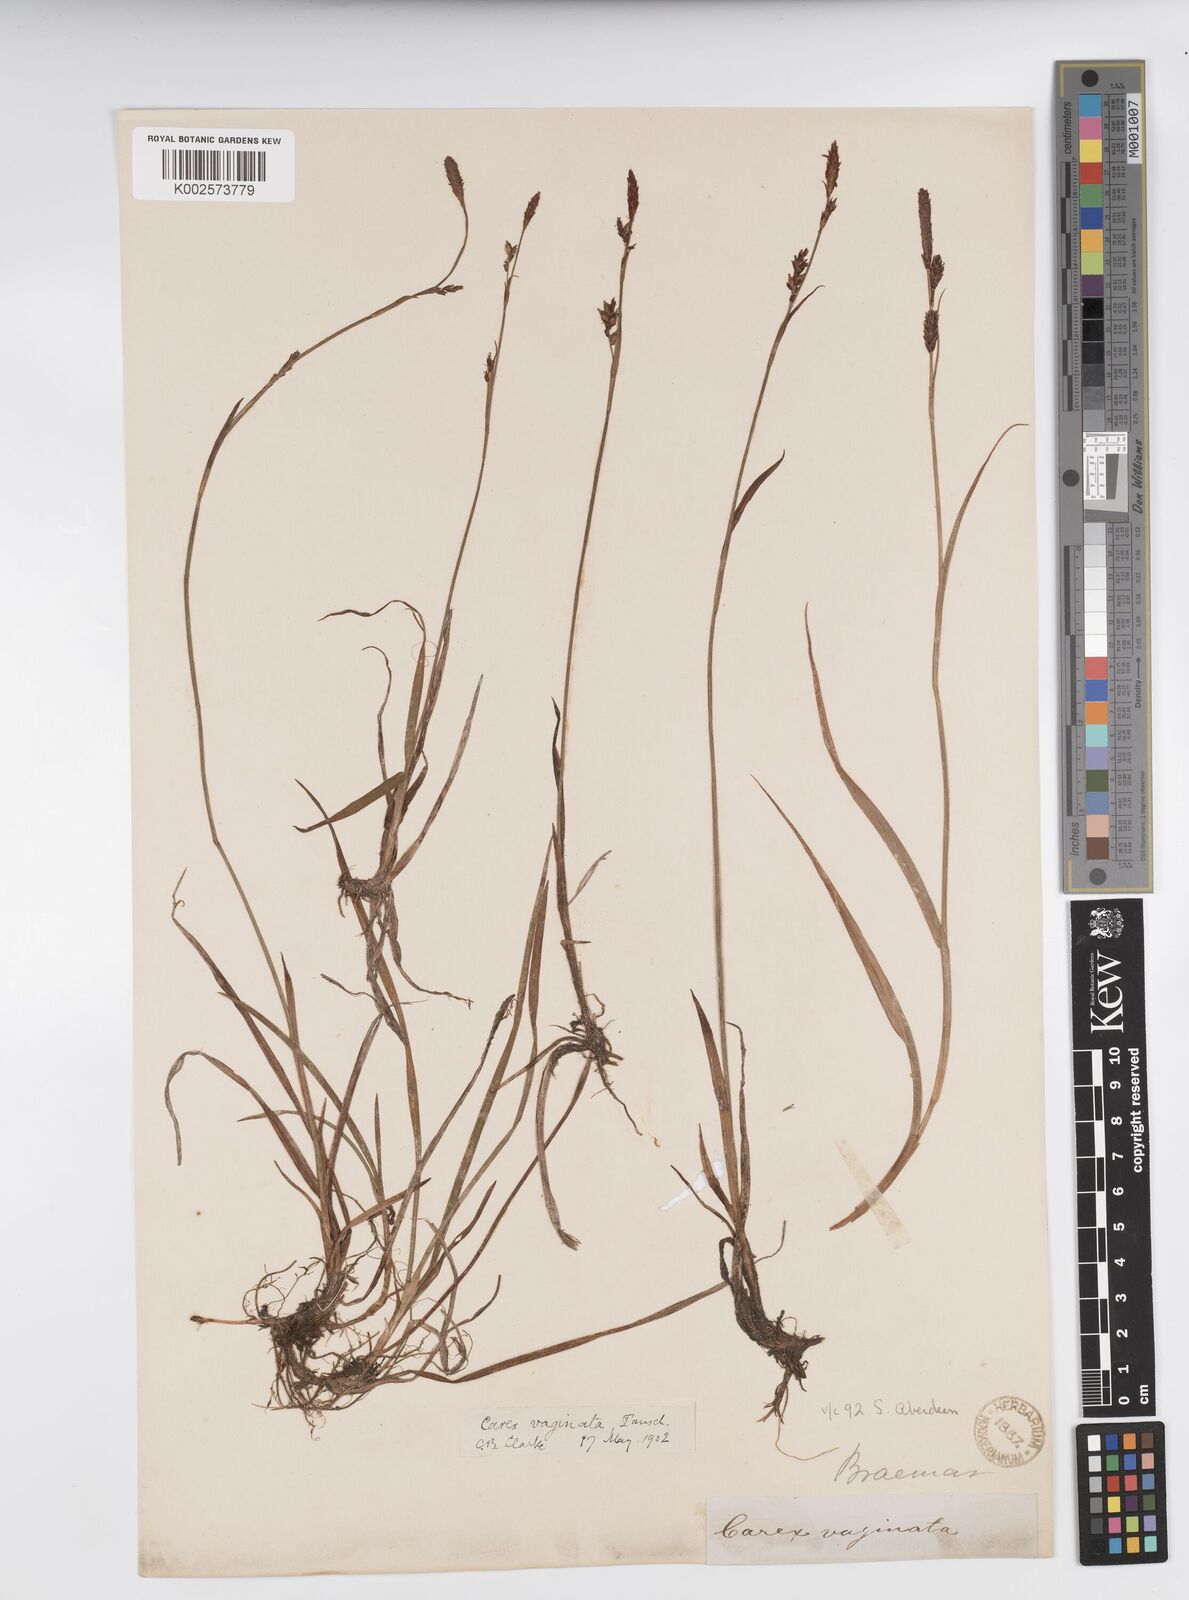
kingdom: Plantae
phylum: Tracheophyta
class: Liliopsida
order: Poales
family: Cyperaceae
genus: Carex
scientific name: Carex vaginata
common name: Sheathed sedge
